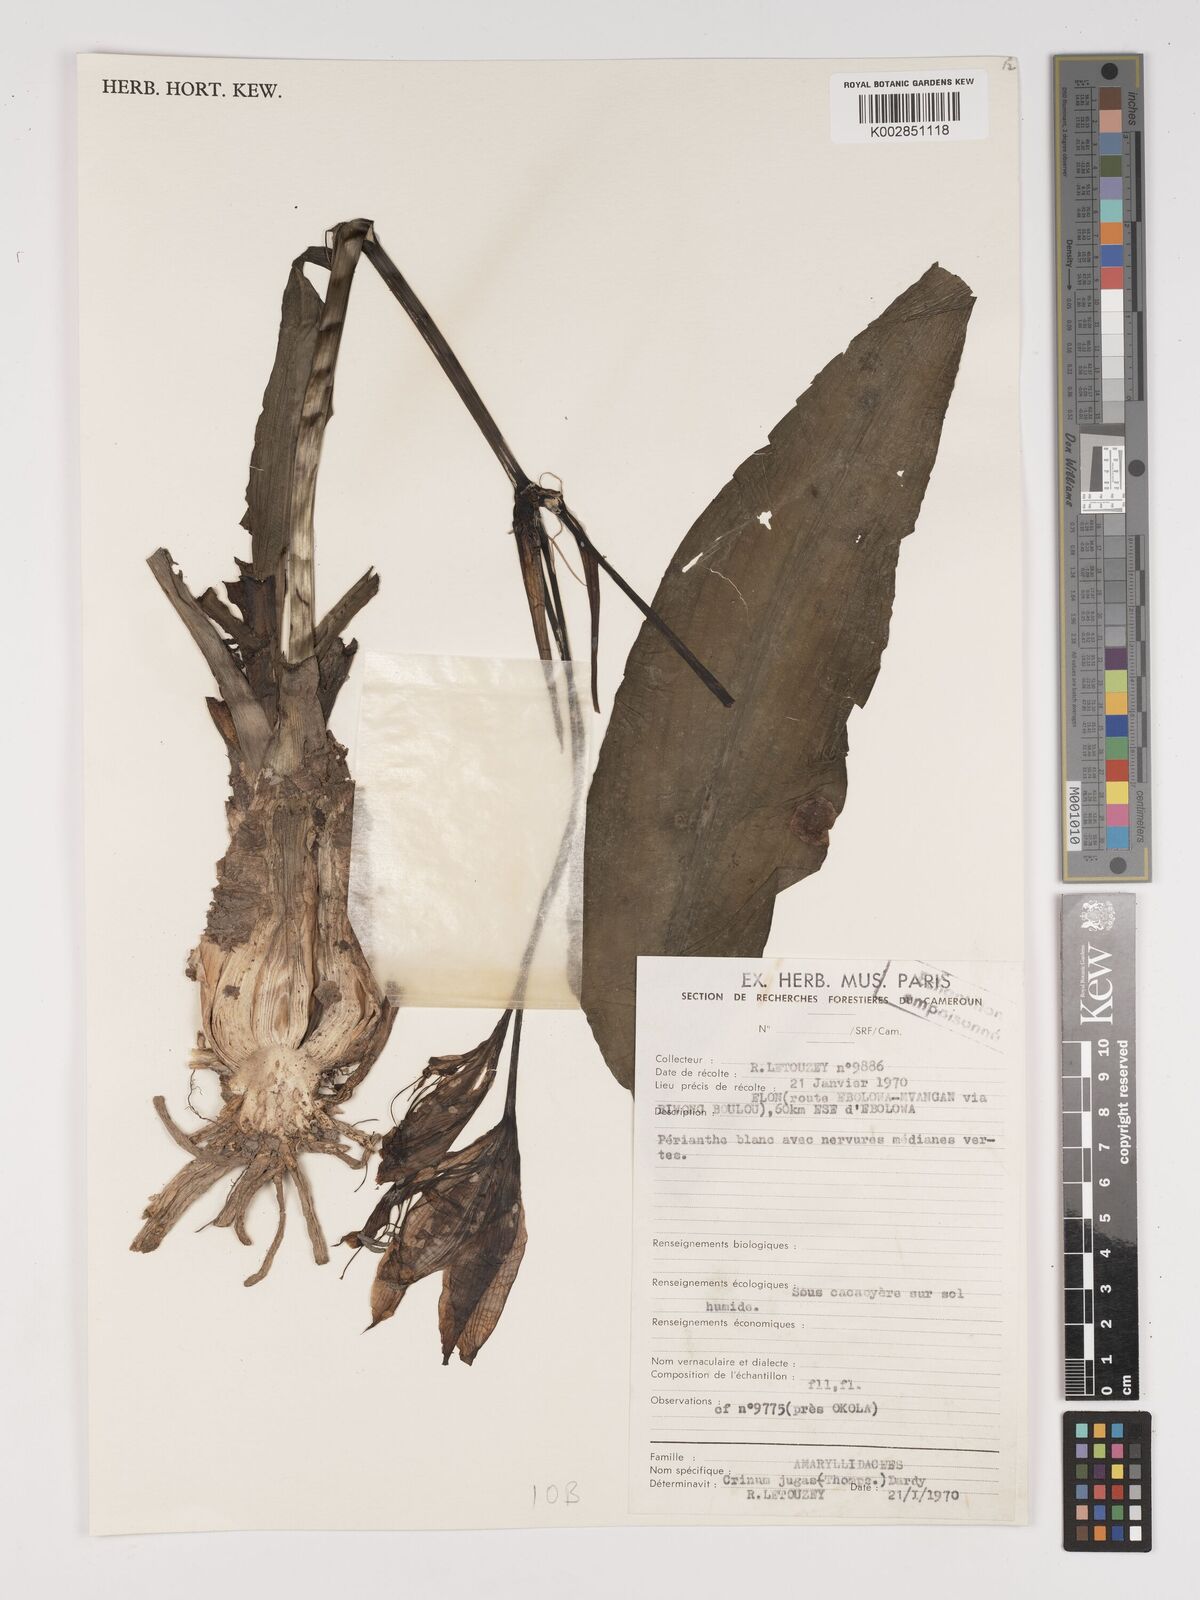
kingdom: Plantae
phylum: Tracheophyta
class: Liliopsida
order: Asparagales
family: Amaryllidaceae
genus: Crinum
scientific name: Crinum jagus
